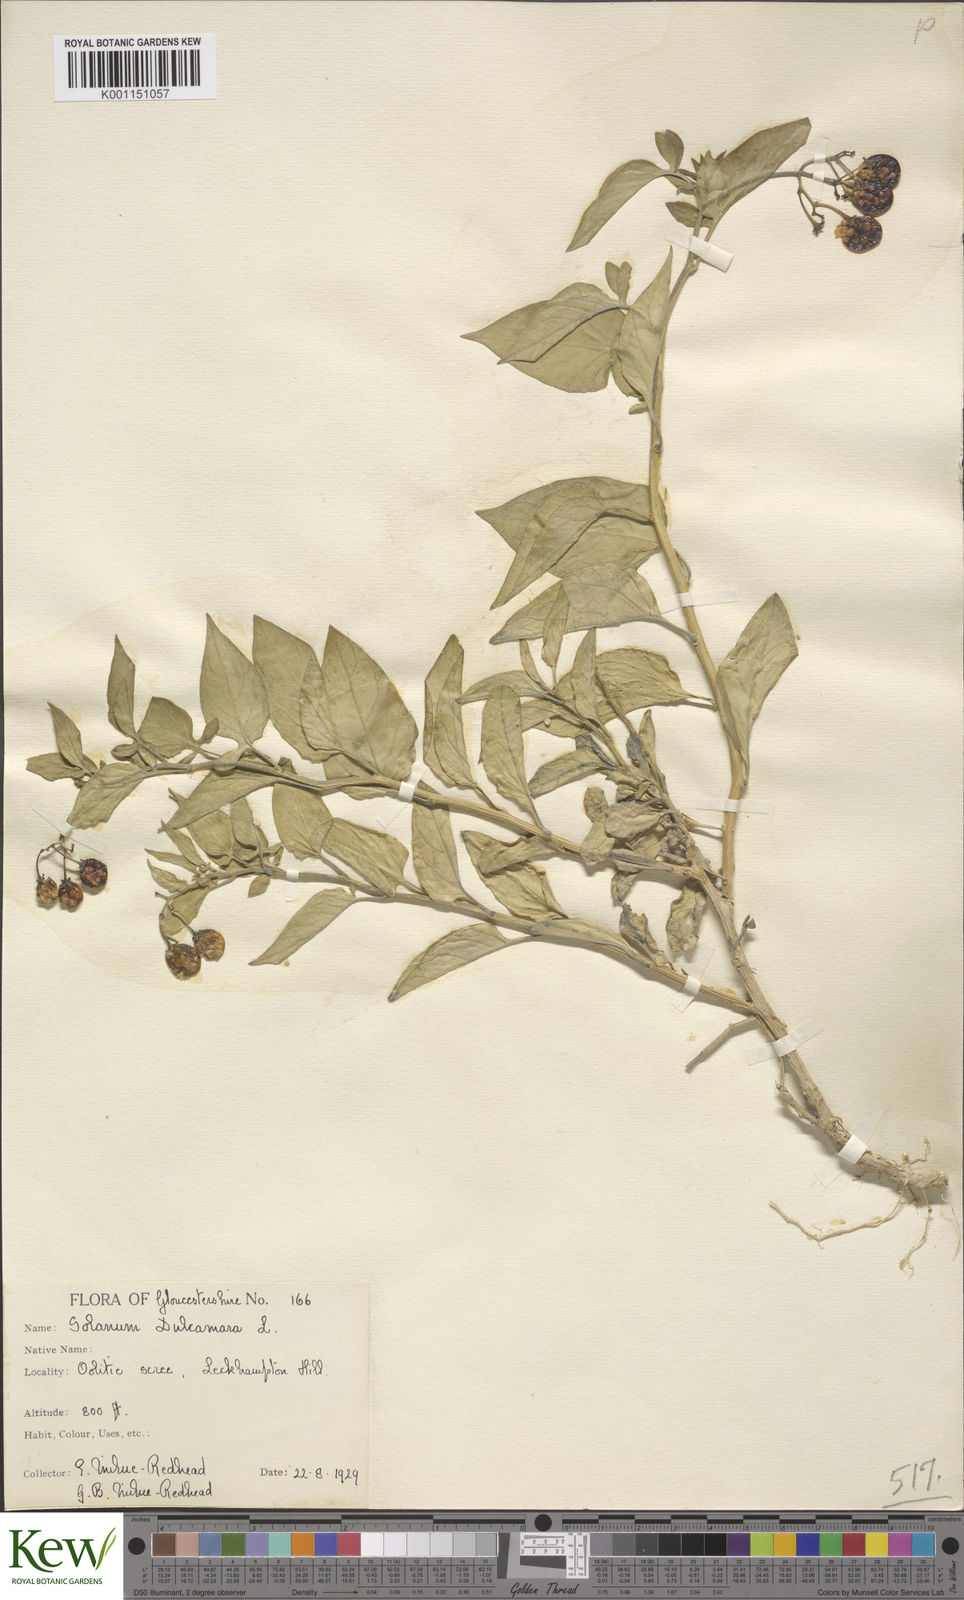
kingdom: Plantae
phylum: Tracheophyta
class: Magnoliopsida
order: Solanales
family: Solanaceae
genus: Solanum
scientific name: Solanum dulcamara
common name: Climbing nightshade
